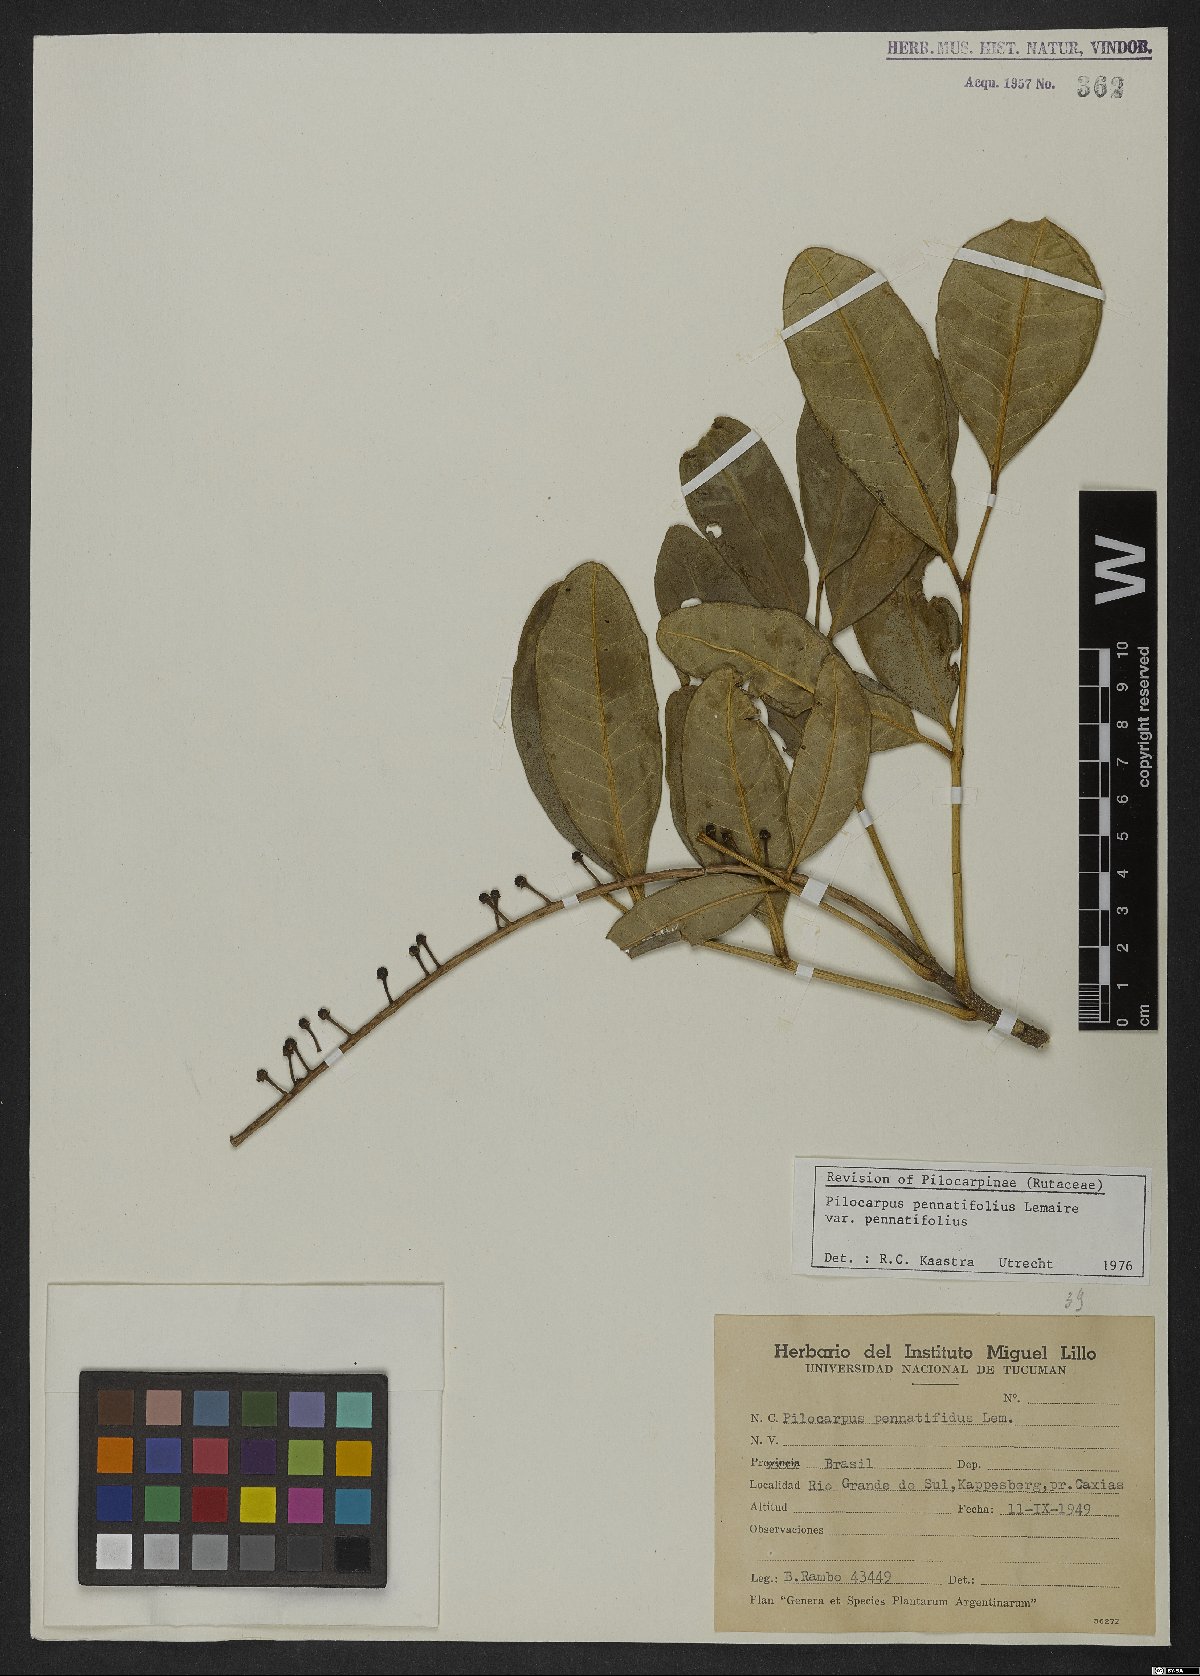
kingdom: Plantae
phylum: Tracheophyta
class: Magnoliopsida
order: Sapindales
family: Rutaceae
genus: Pilocarpus
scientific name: Pilocarpus pennatifolius
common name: Paraguay jaborandi
